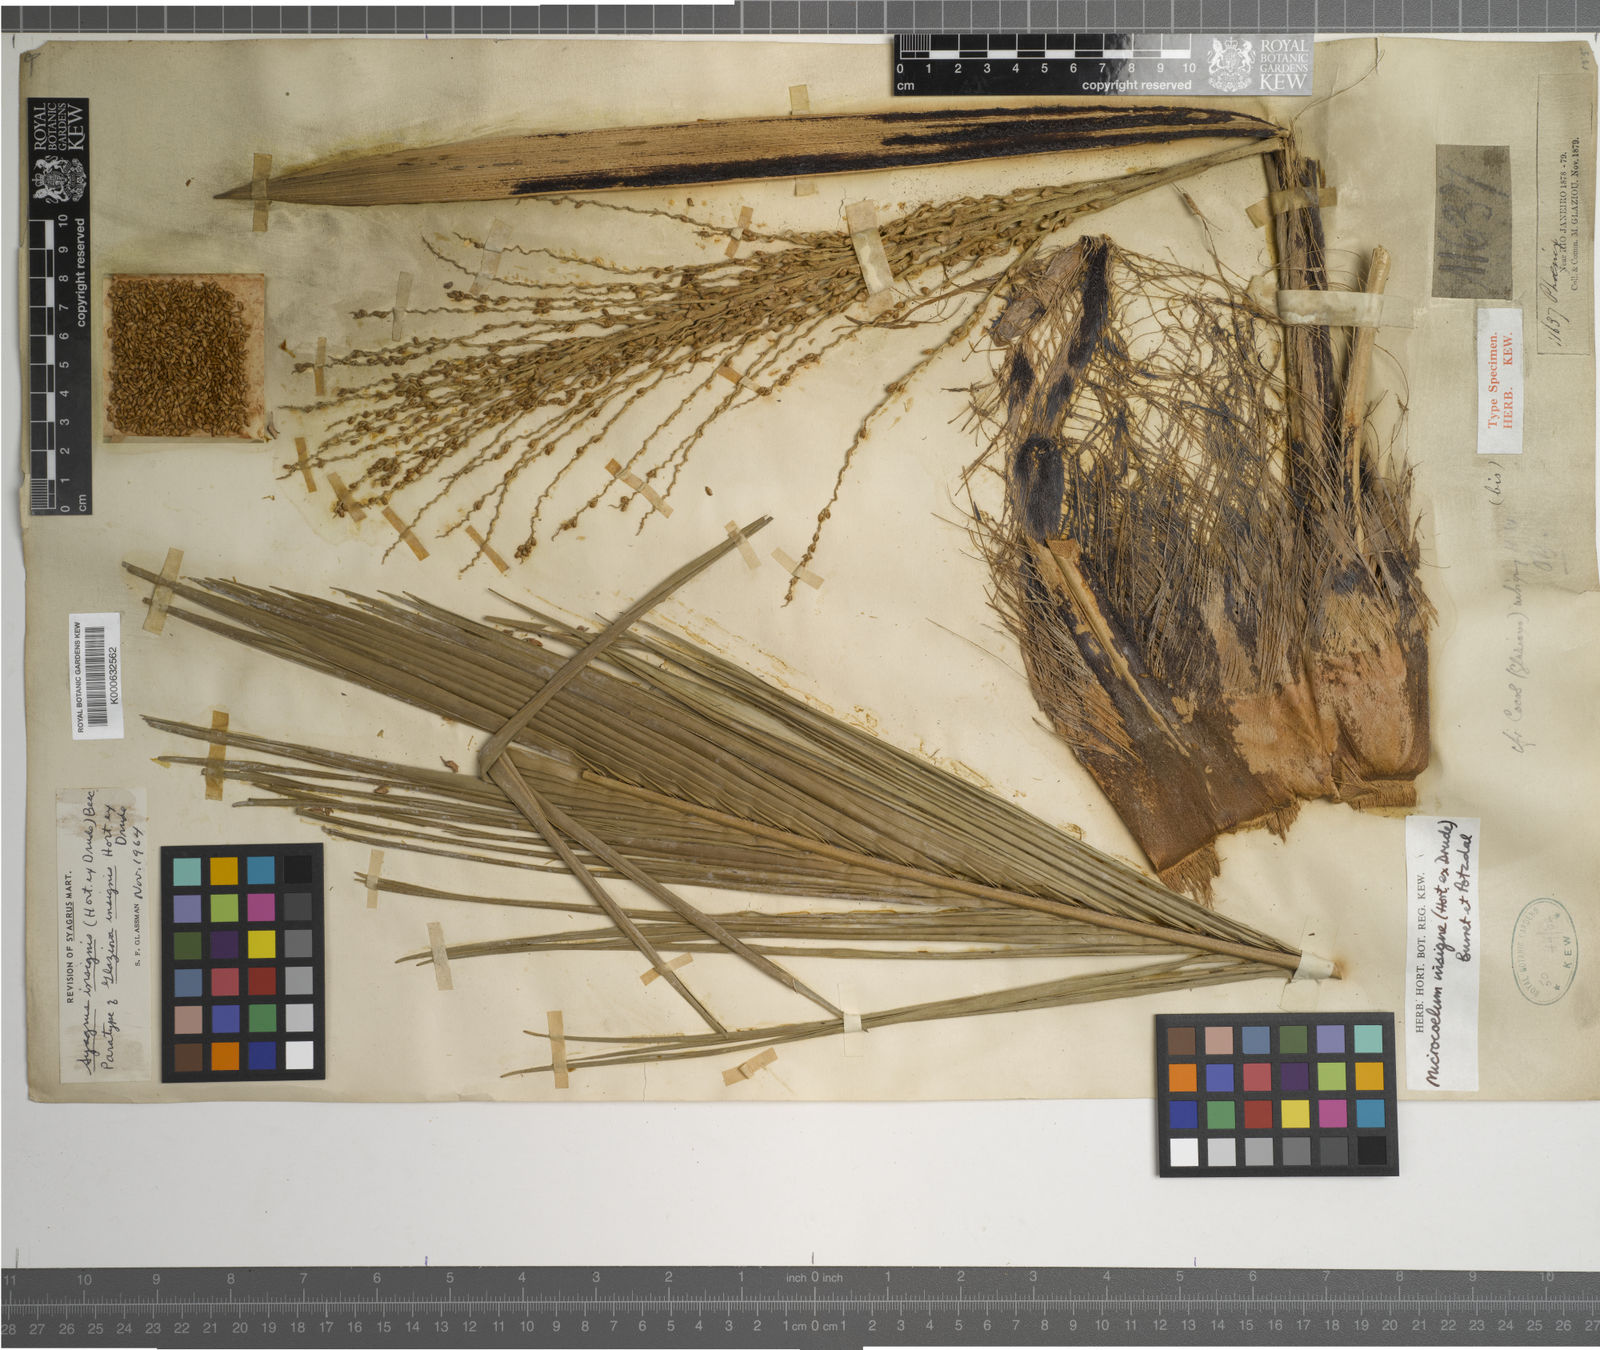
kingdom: Plantae
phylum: Tracheophyta
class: Liliopsida
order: Arecales
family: Arecaceae
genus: Syagrus
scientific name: Syagrus weddelliana
